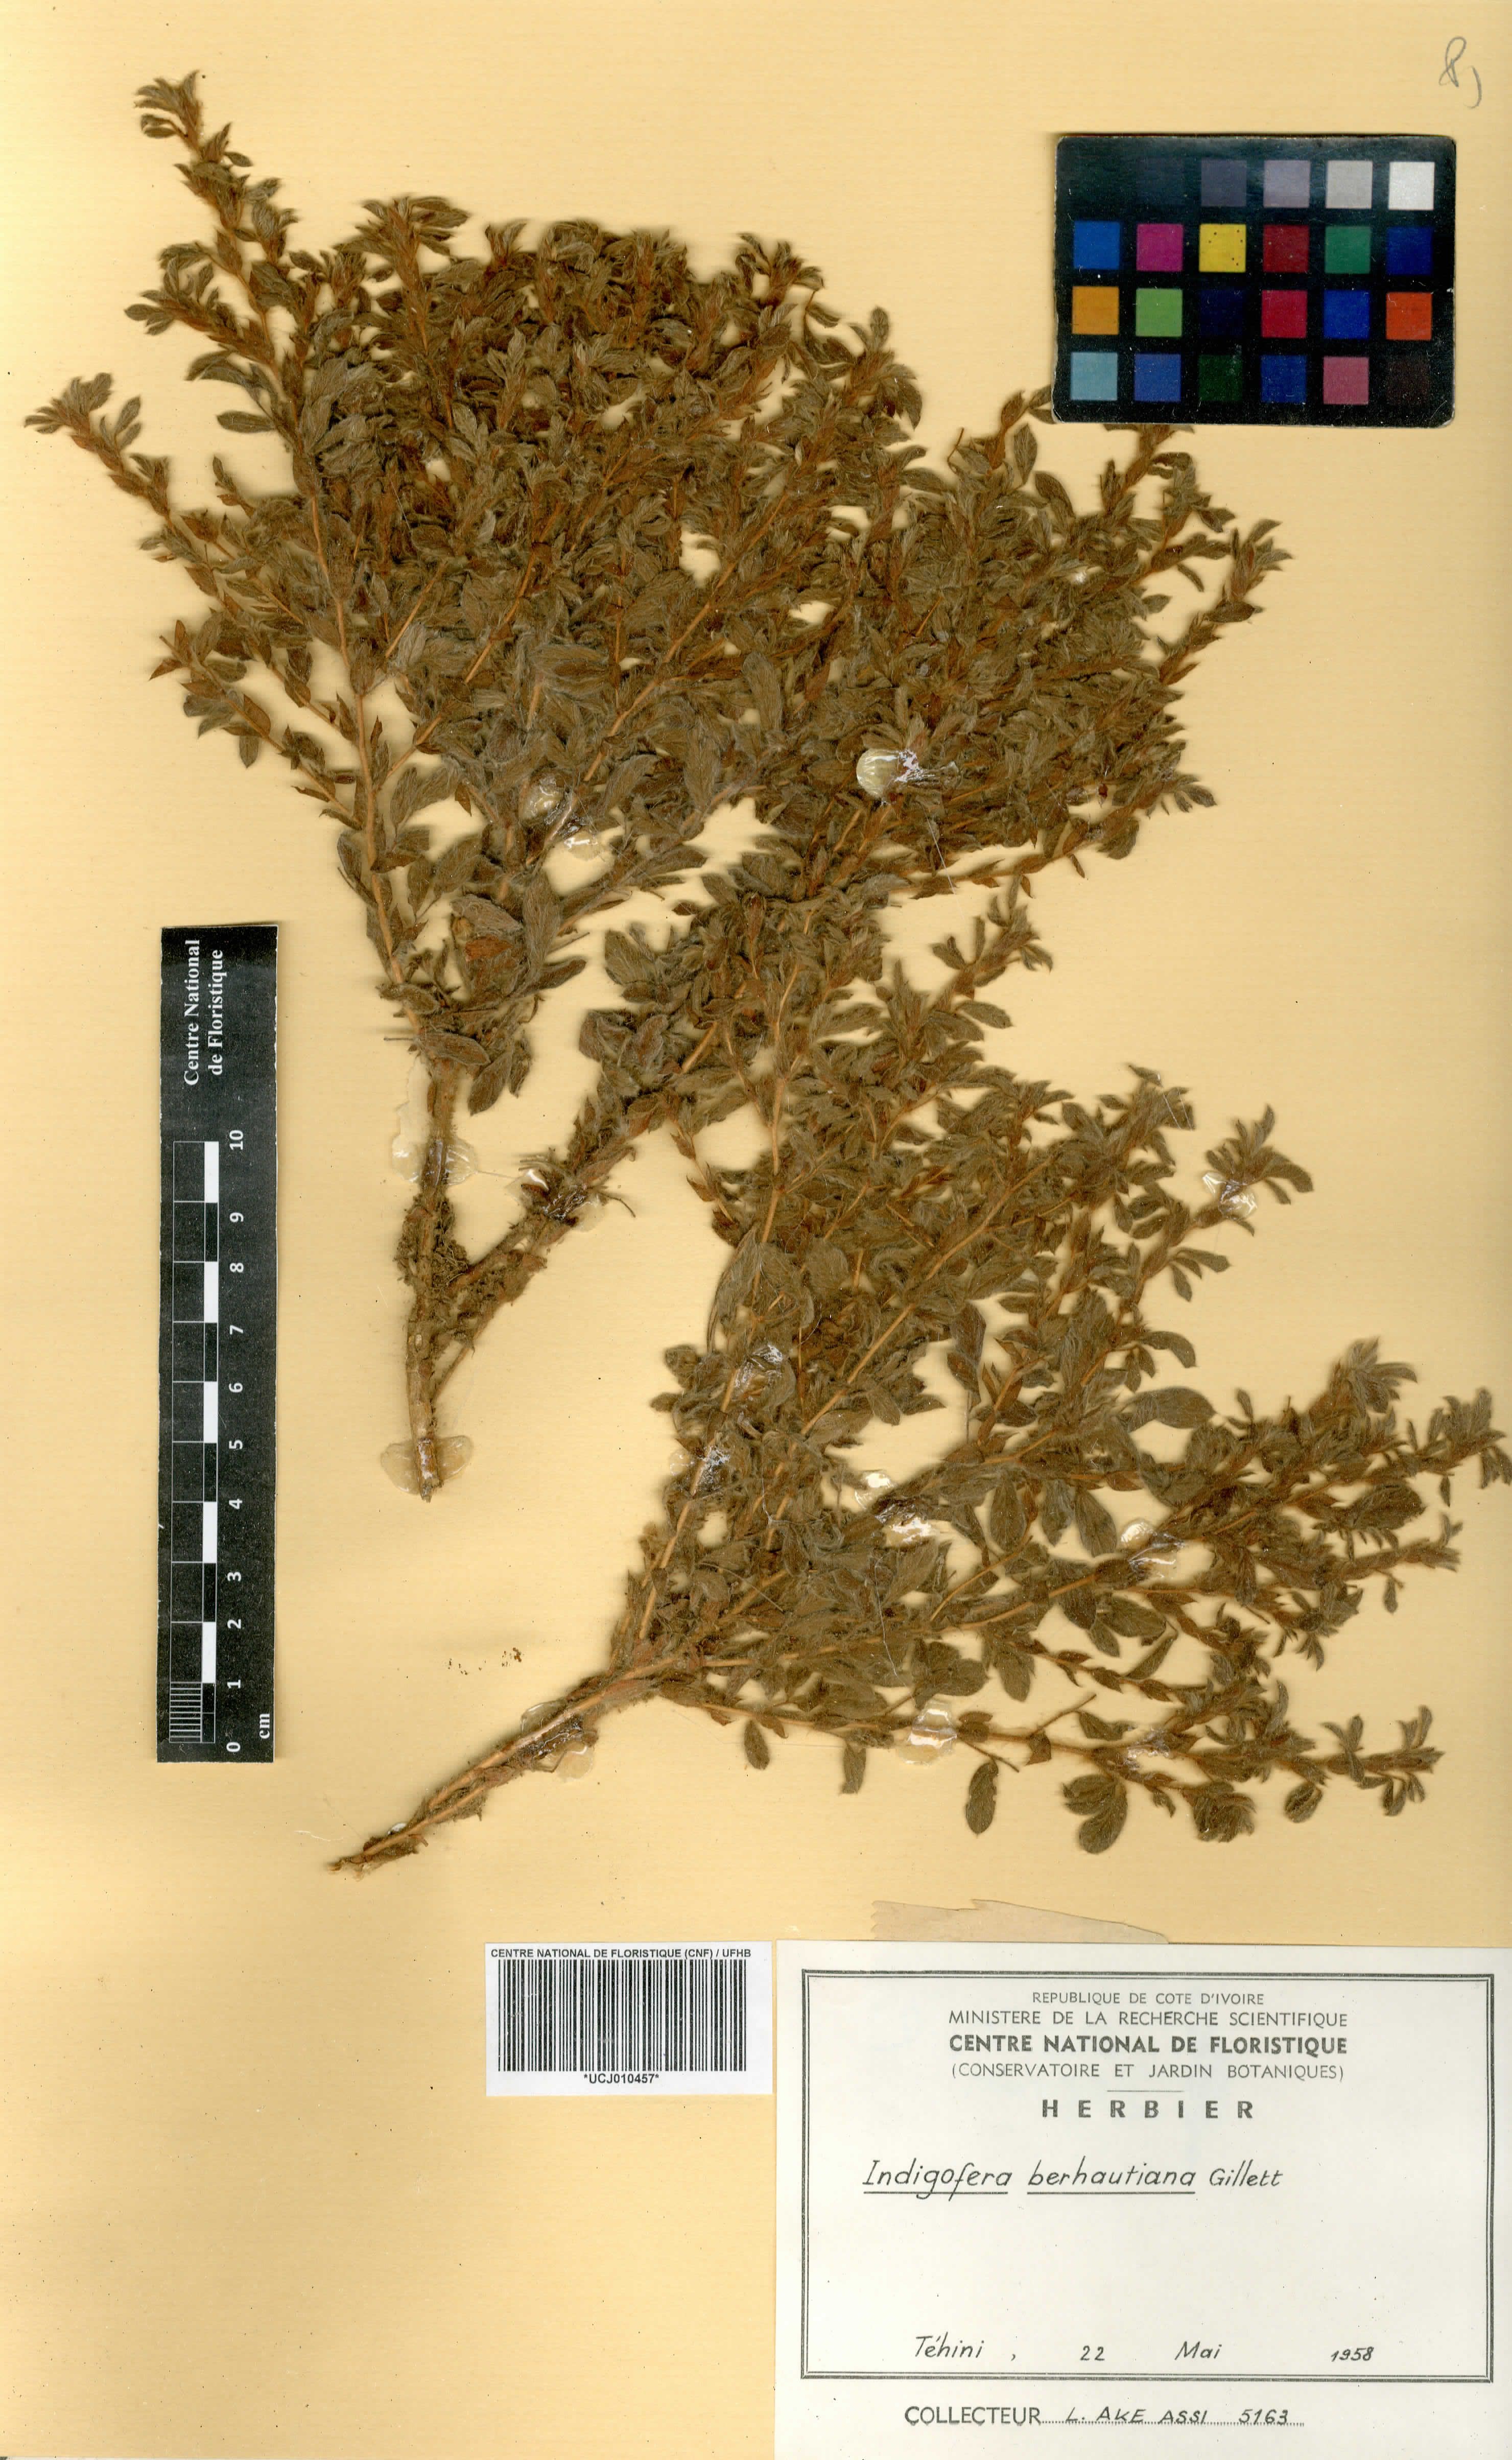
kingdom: Plantae
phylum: Tracheophyta
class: Magnoliopsida
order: Fabales
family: Fabaceae
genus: Indigofera
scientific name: Indigofera berhautiana
